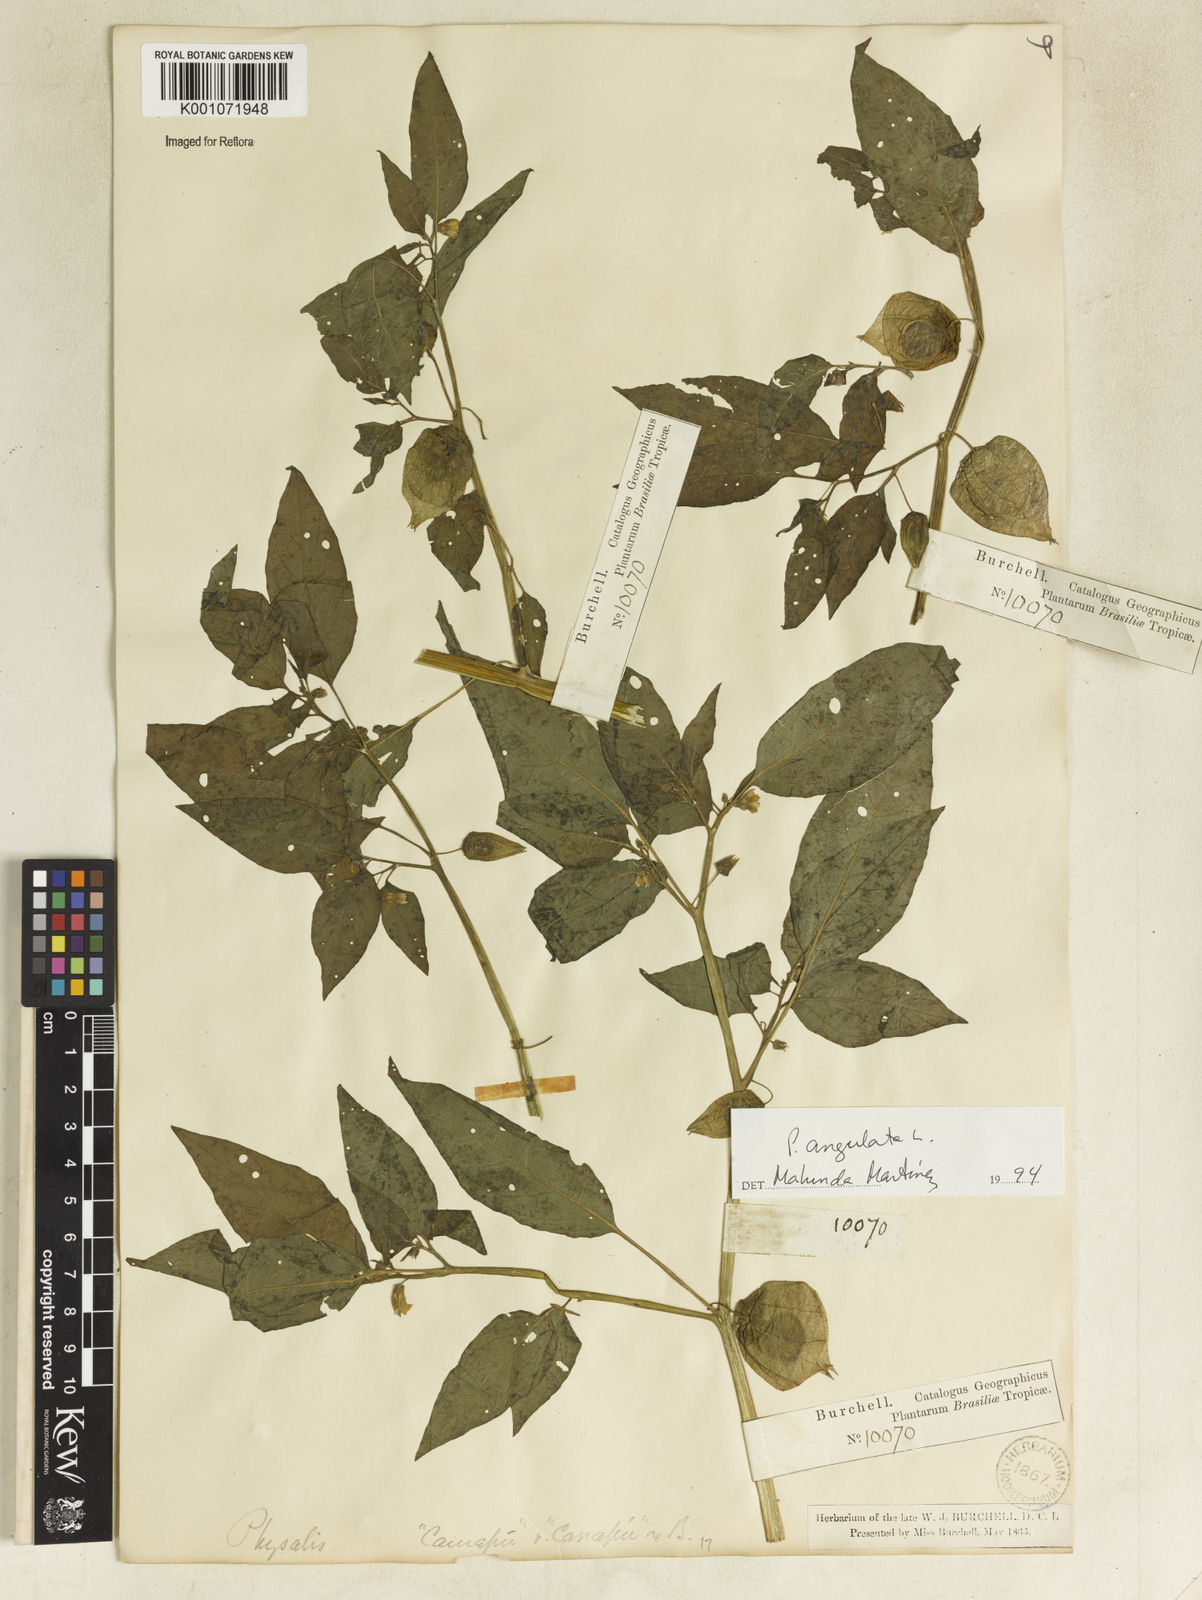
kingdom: Plantae
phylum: Tracheophyta
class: Magnoliopsida
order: Solanales
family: Solanaceae
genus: Physalis
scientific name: Physalis angulata
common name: Angular winter-cherry
